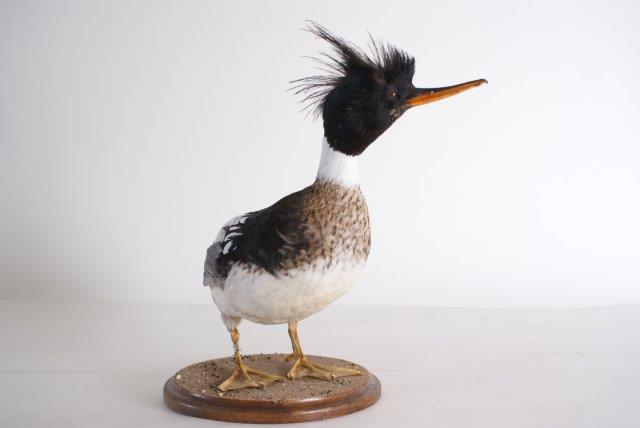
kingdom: Animalia
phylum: Chordata
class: Aves
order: Anseriformes
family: Anatidae
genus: Mergus
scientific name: Mergus serrator
